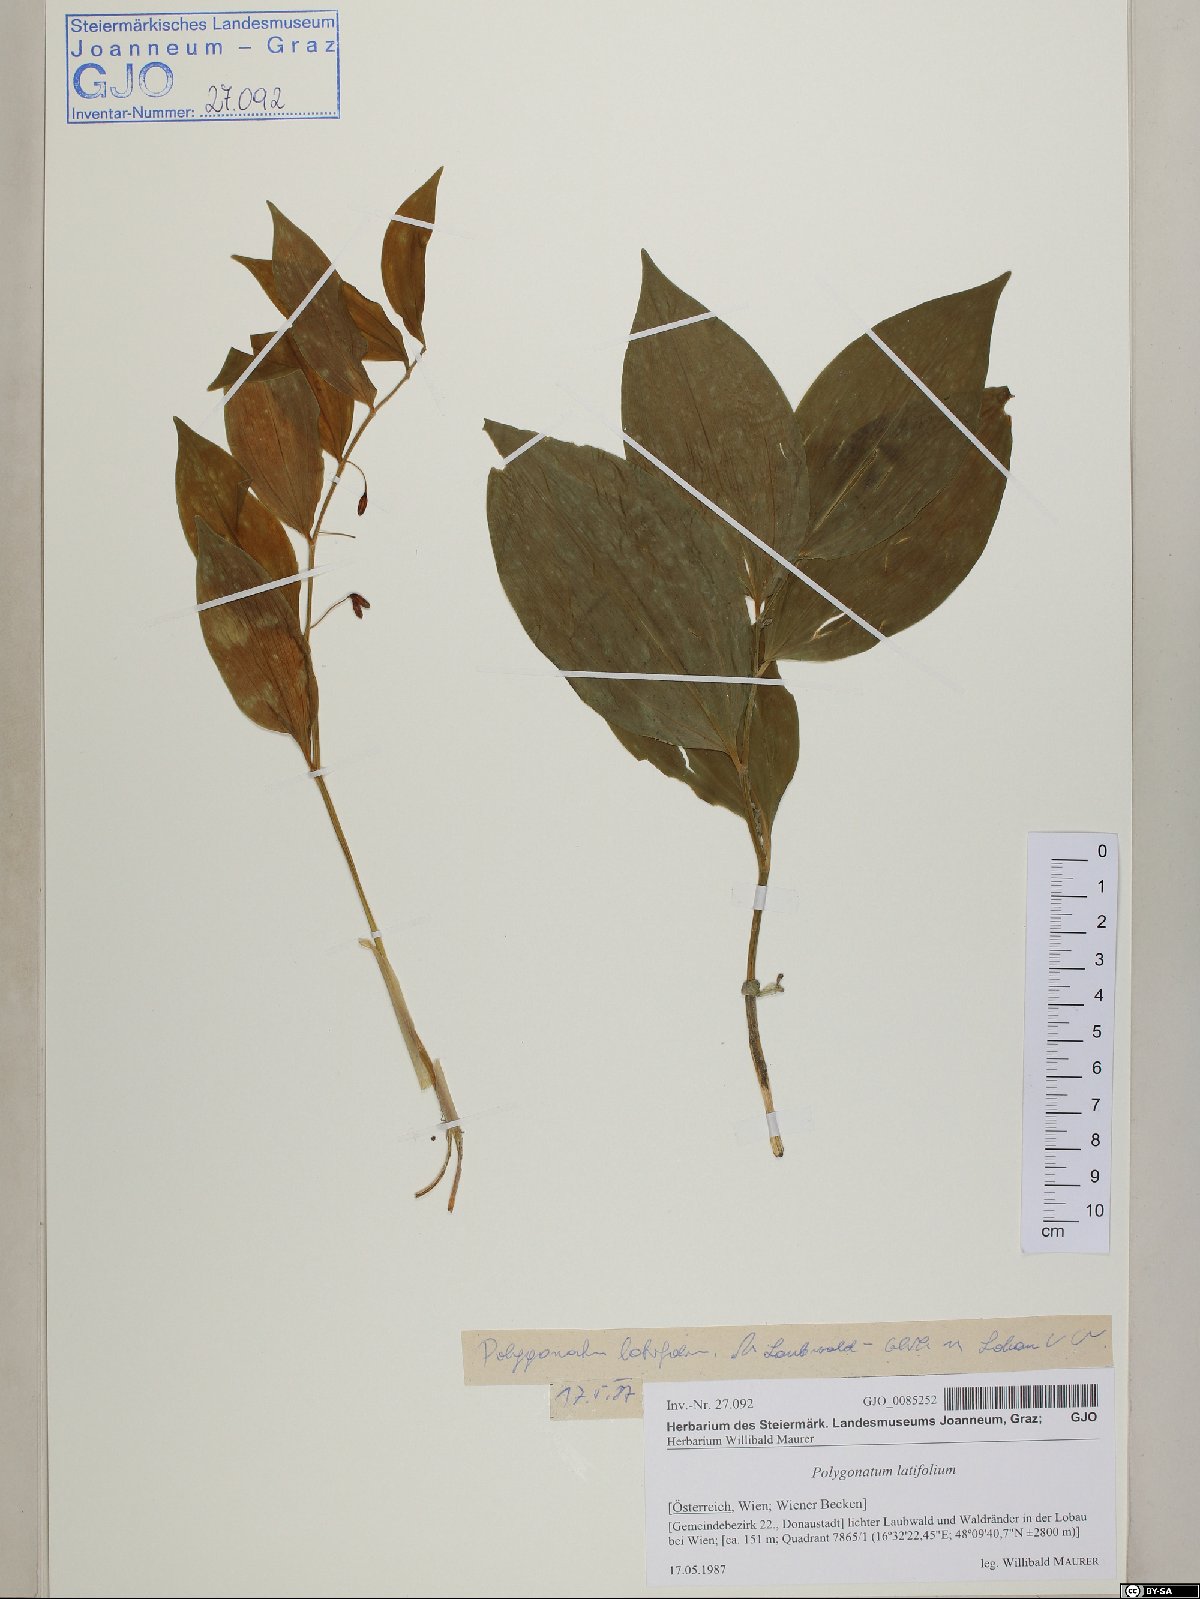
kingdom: Plantae
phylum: Tracheophyta
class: Liliopsida
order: Asparagales
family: Asparagaceae
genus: Polygonatum
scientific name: Polygonatum latifolium
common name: Broadleaf solomon's seal
